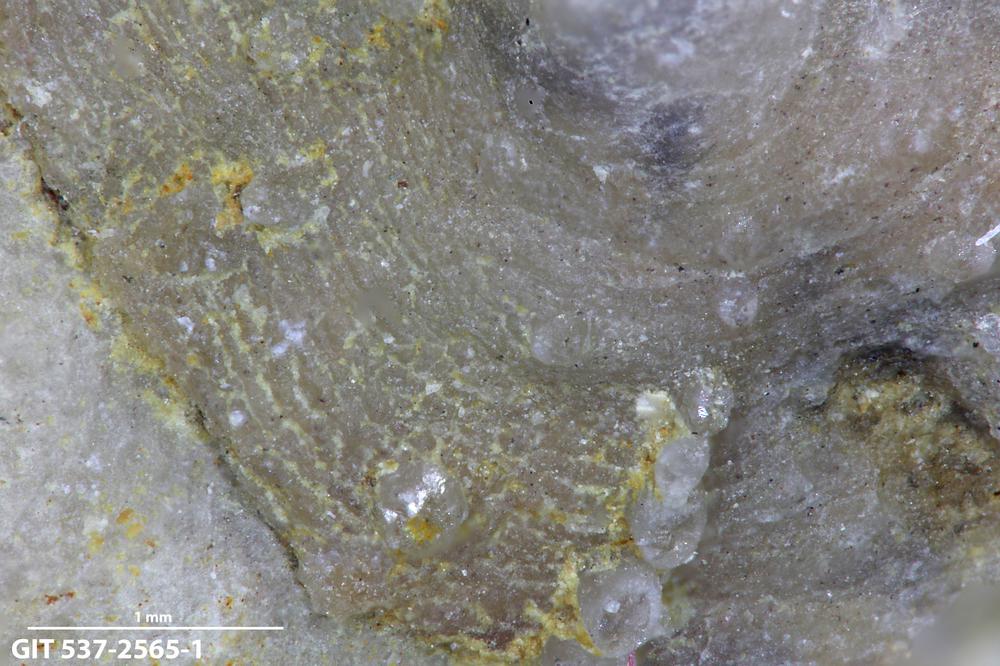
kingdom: Animalia
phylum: Brachiopoda
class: Craniata
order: Craniida
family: Craniidae
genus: Philhedra
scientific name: Philhedra
